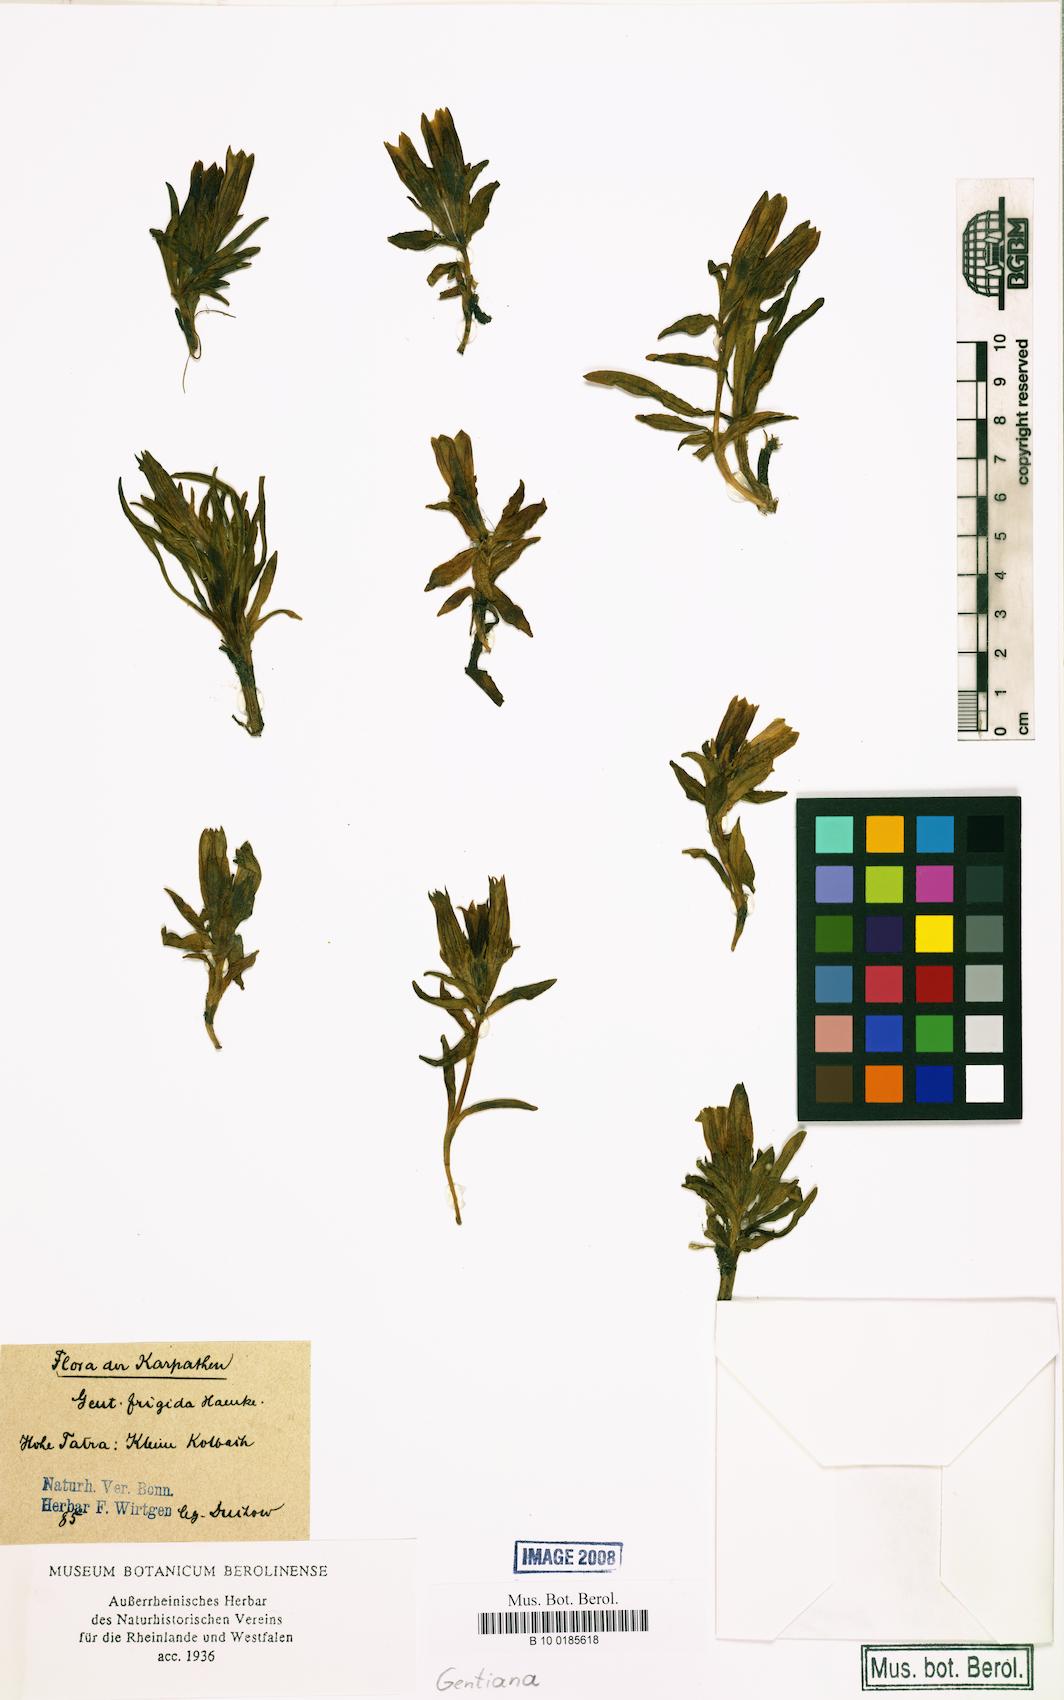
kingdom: Plantae
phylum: Tracheophyta
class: Magnoliopsida
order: Gentianales
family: Gentianaceae
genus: Gentiana
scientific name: Gentiana frigida
